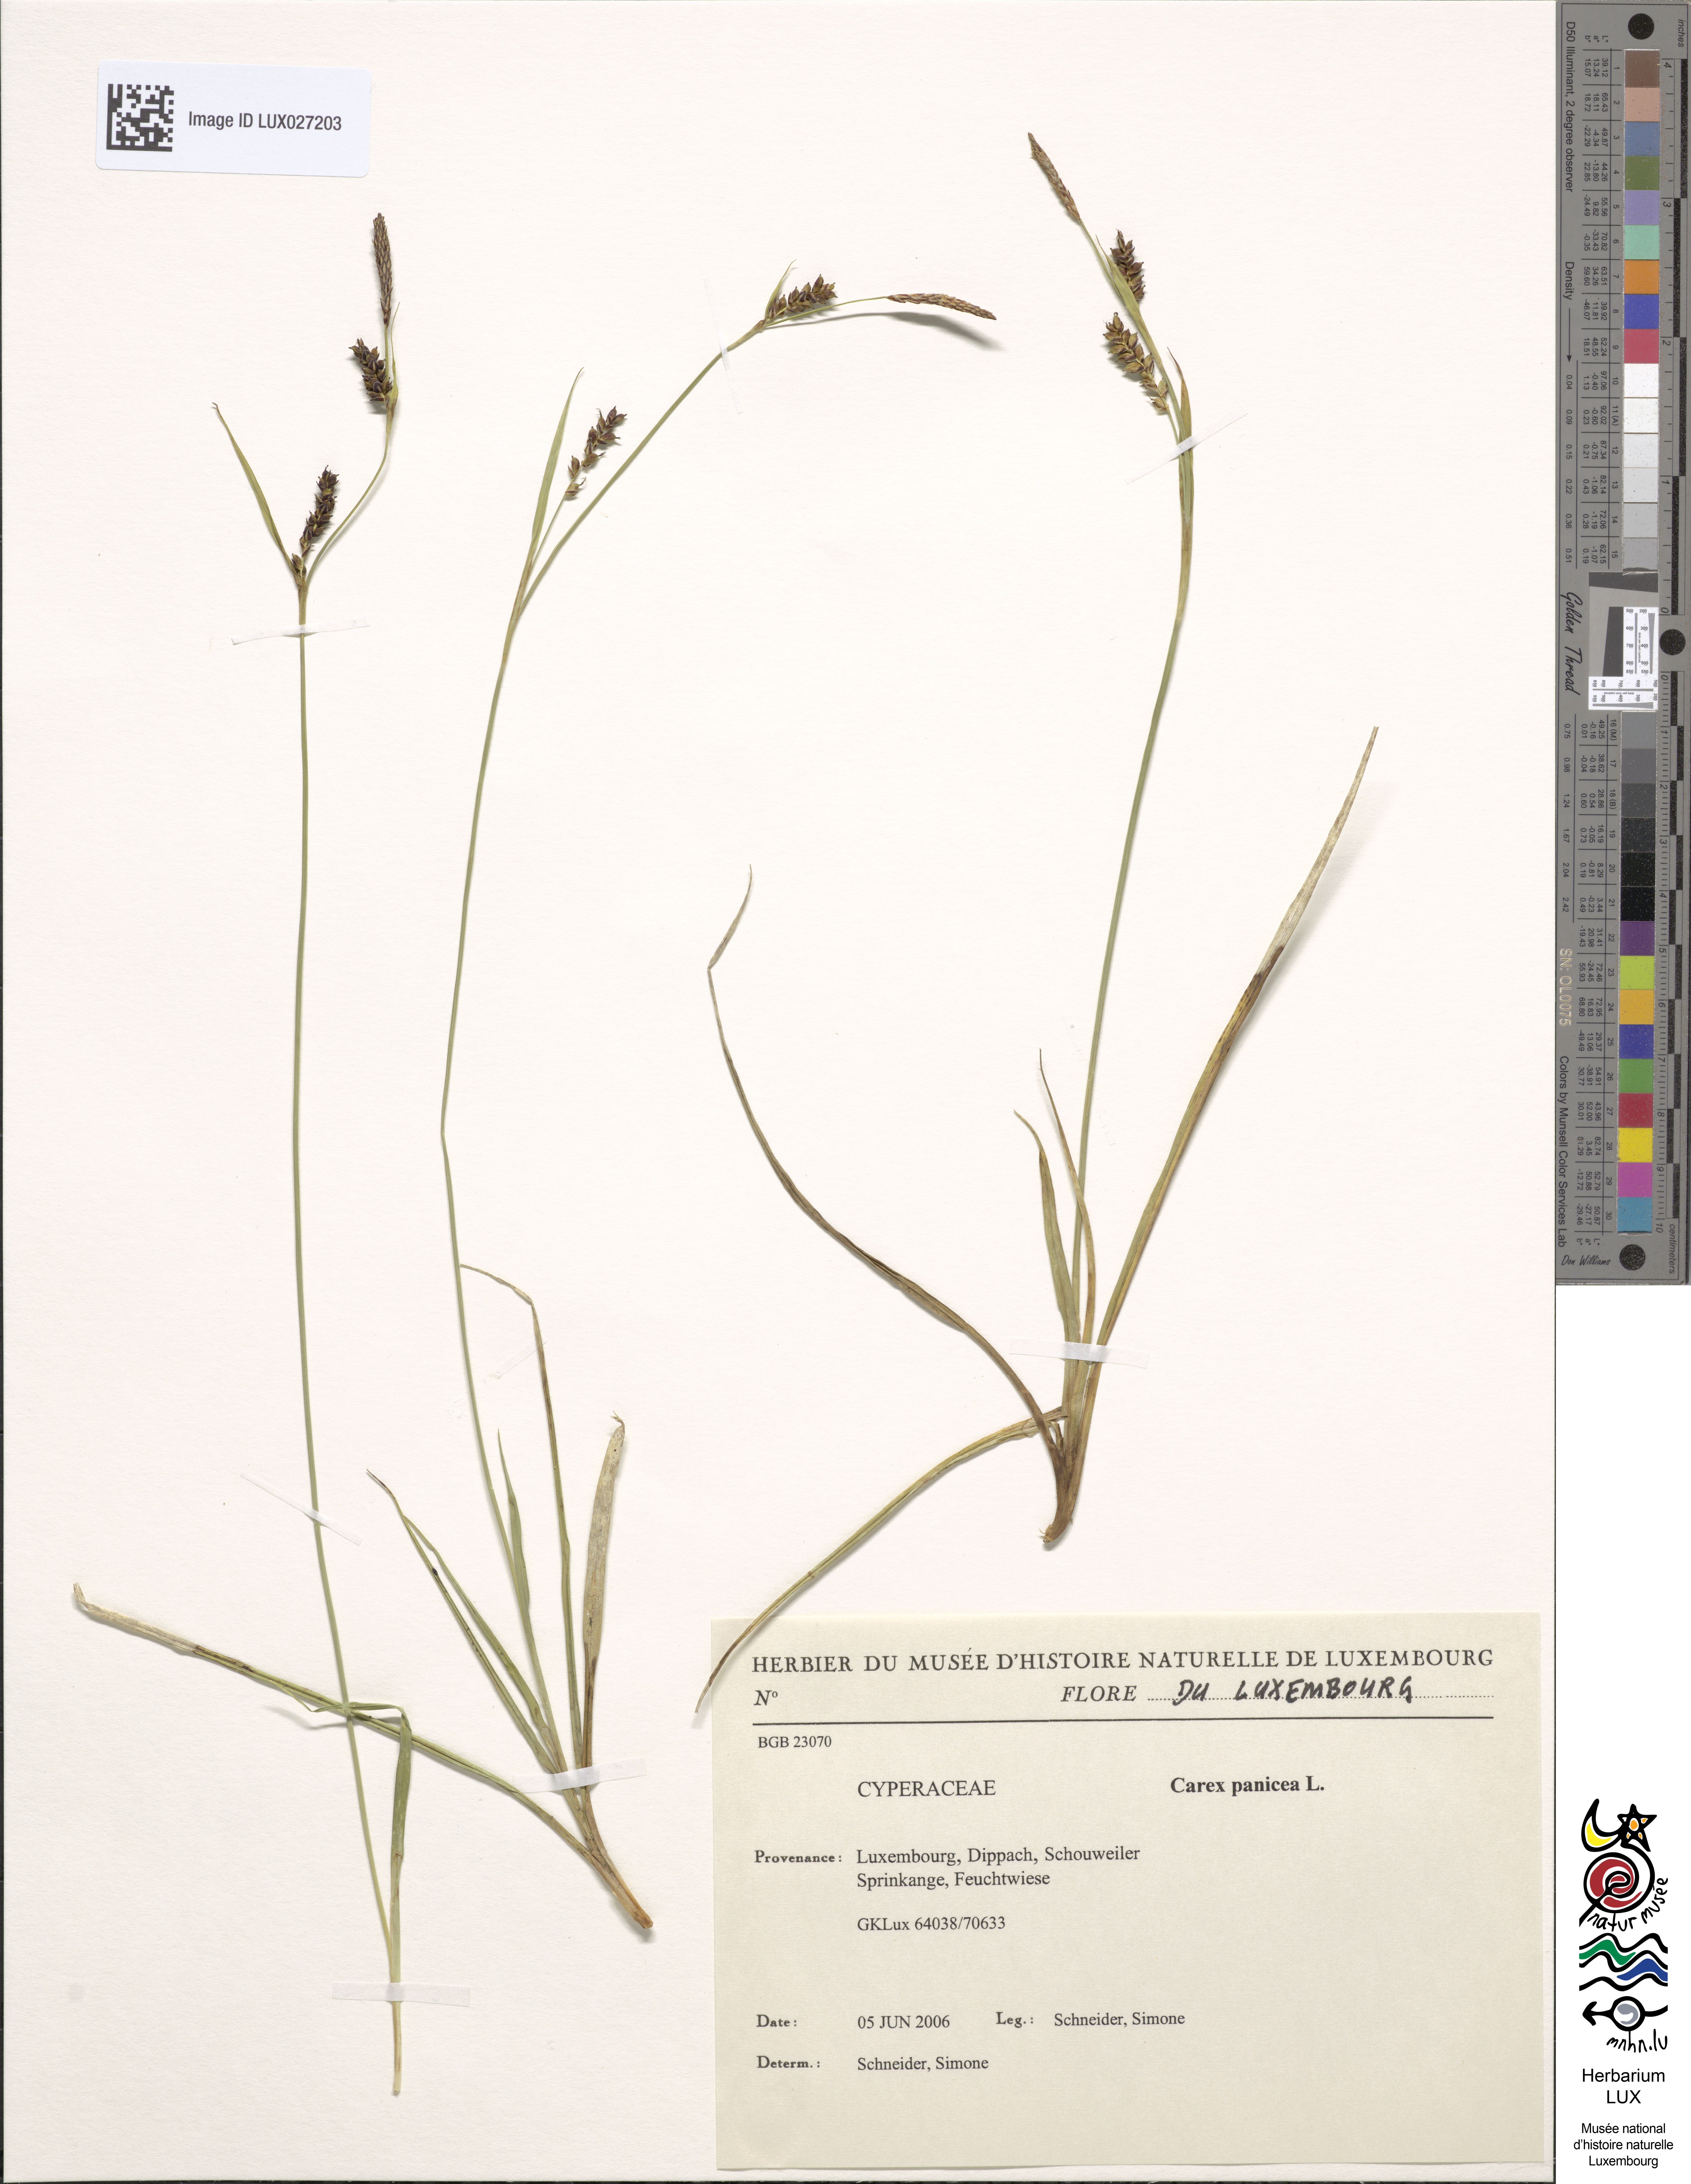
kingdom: Plantae
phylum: Tracheophyta
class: Liliopsida
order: Poales
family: Cyperaceae
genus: Carex
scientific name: Carex panicea
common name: Carnation sedge
